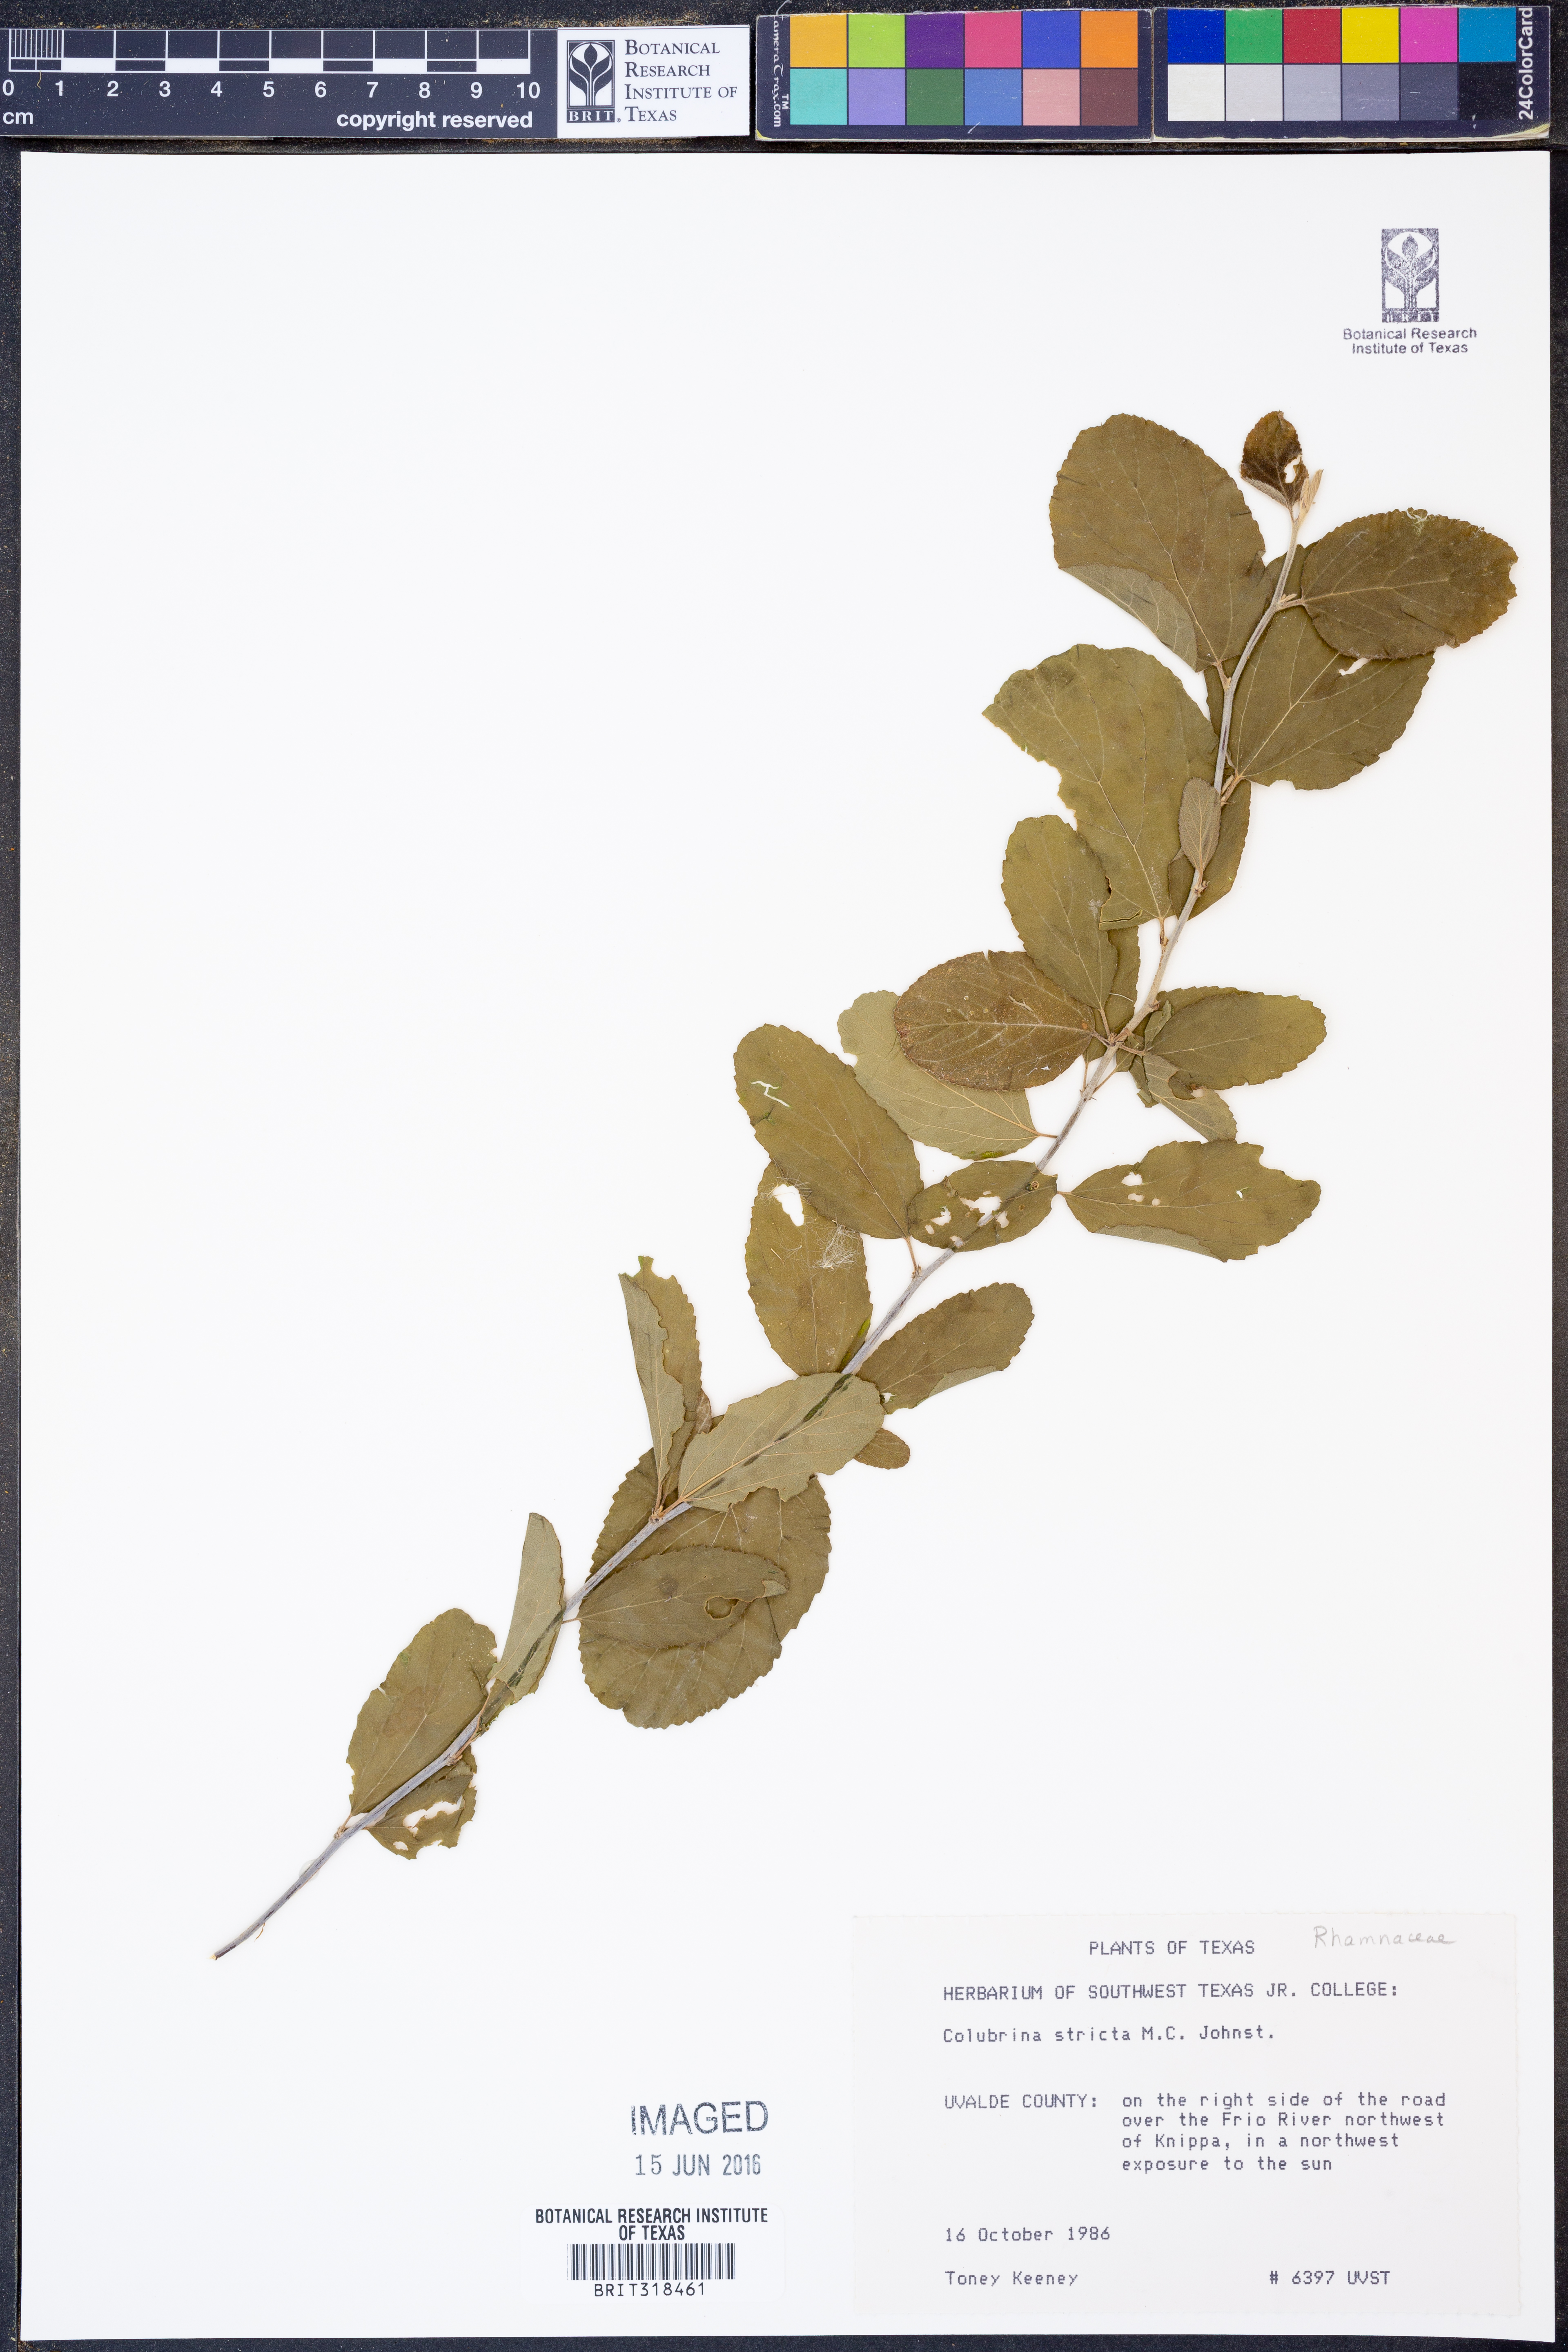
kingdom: Plantae
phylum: Tracheophyta
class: Magnoliopsida
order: Rosales
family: Rhamnaceae
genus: Colubrina
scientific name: Colubrina stricta
